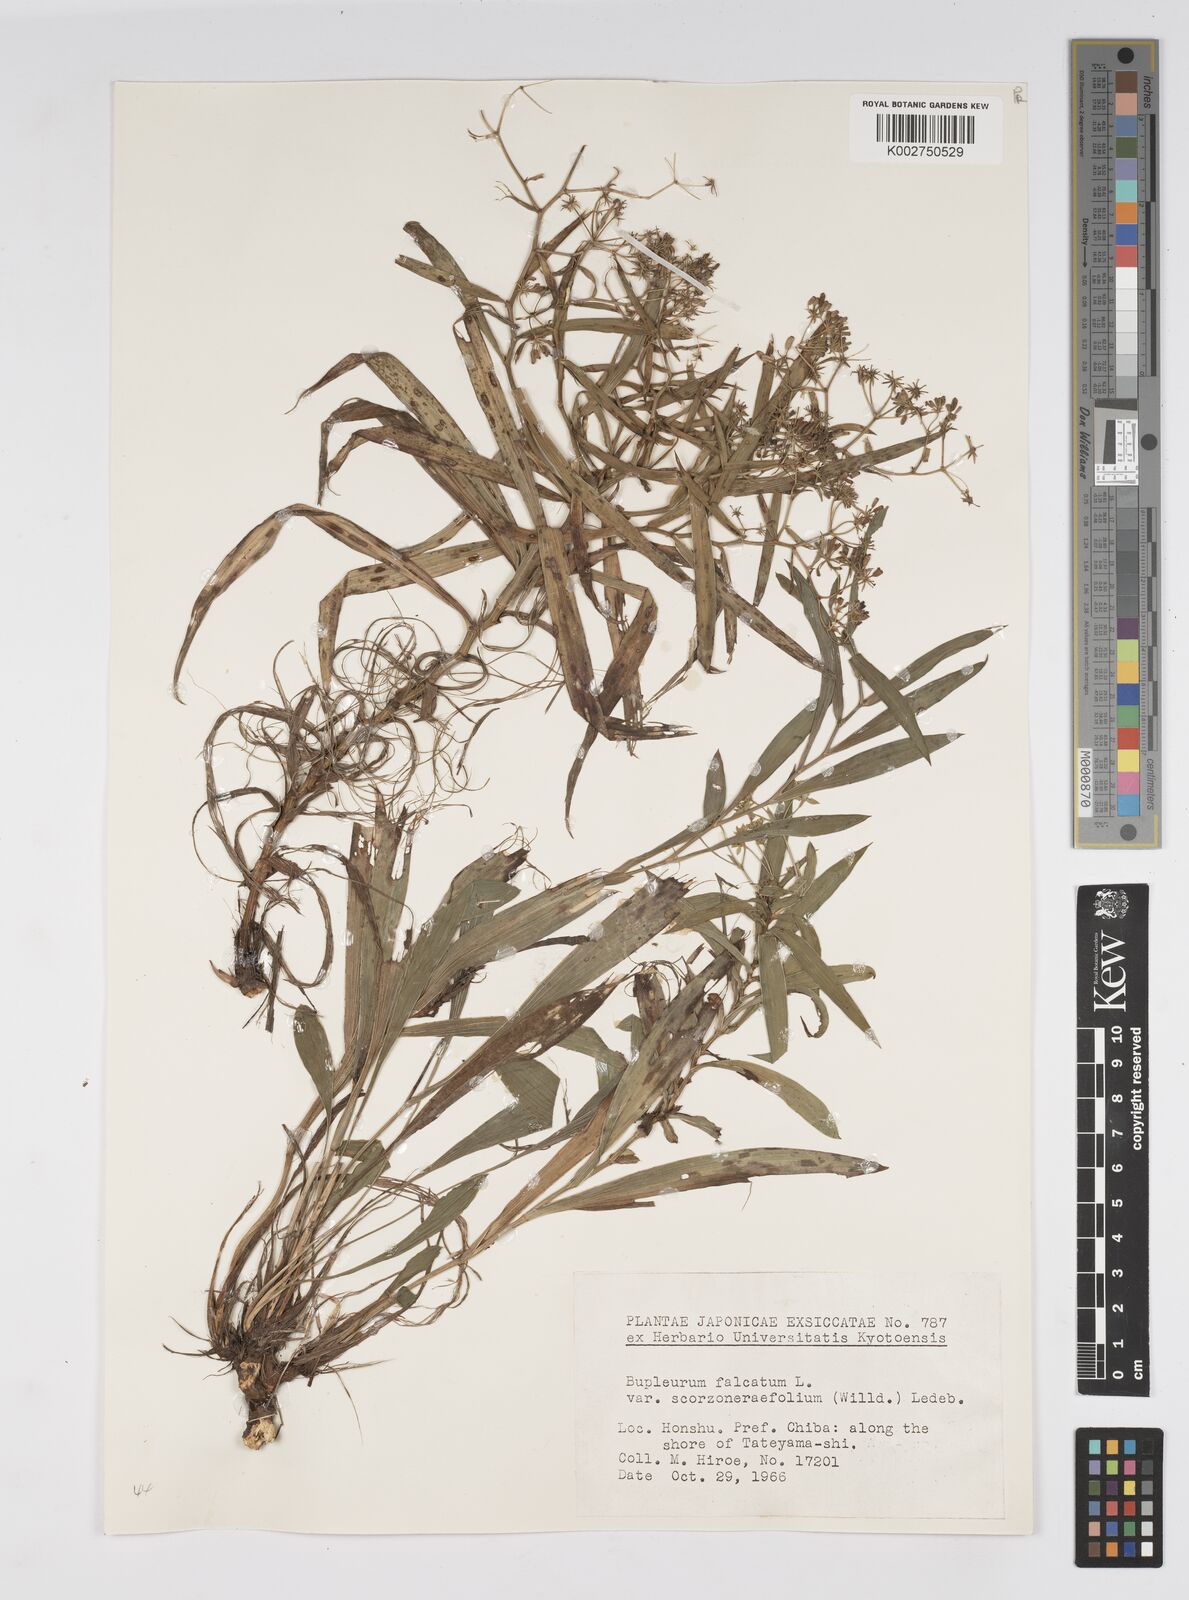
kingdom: Plantae
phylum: Tracheophyta
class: Magnoliopsida
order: Apiales
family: Apiaceae
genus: Bupleurum
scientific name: Bupleurum scorzonerifolium
